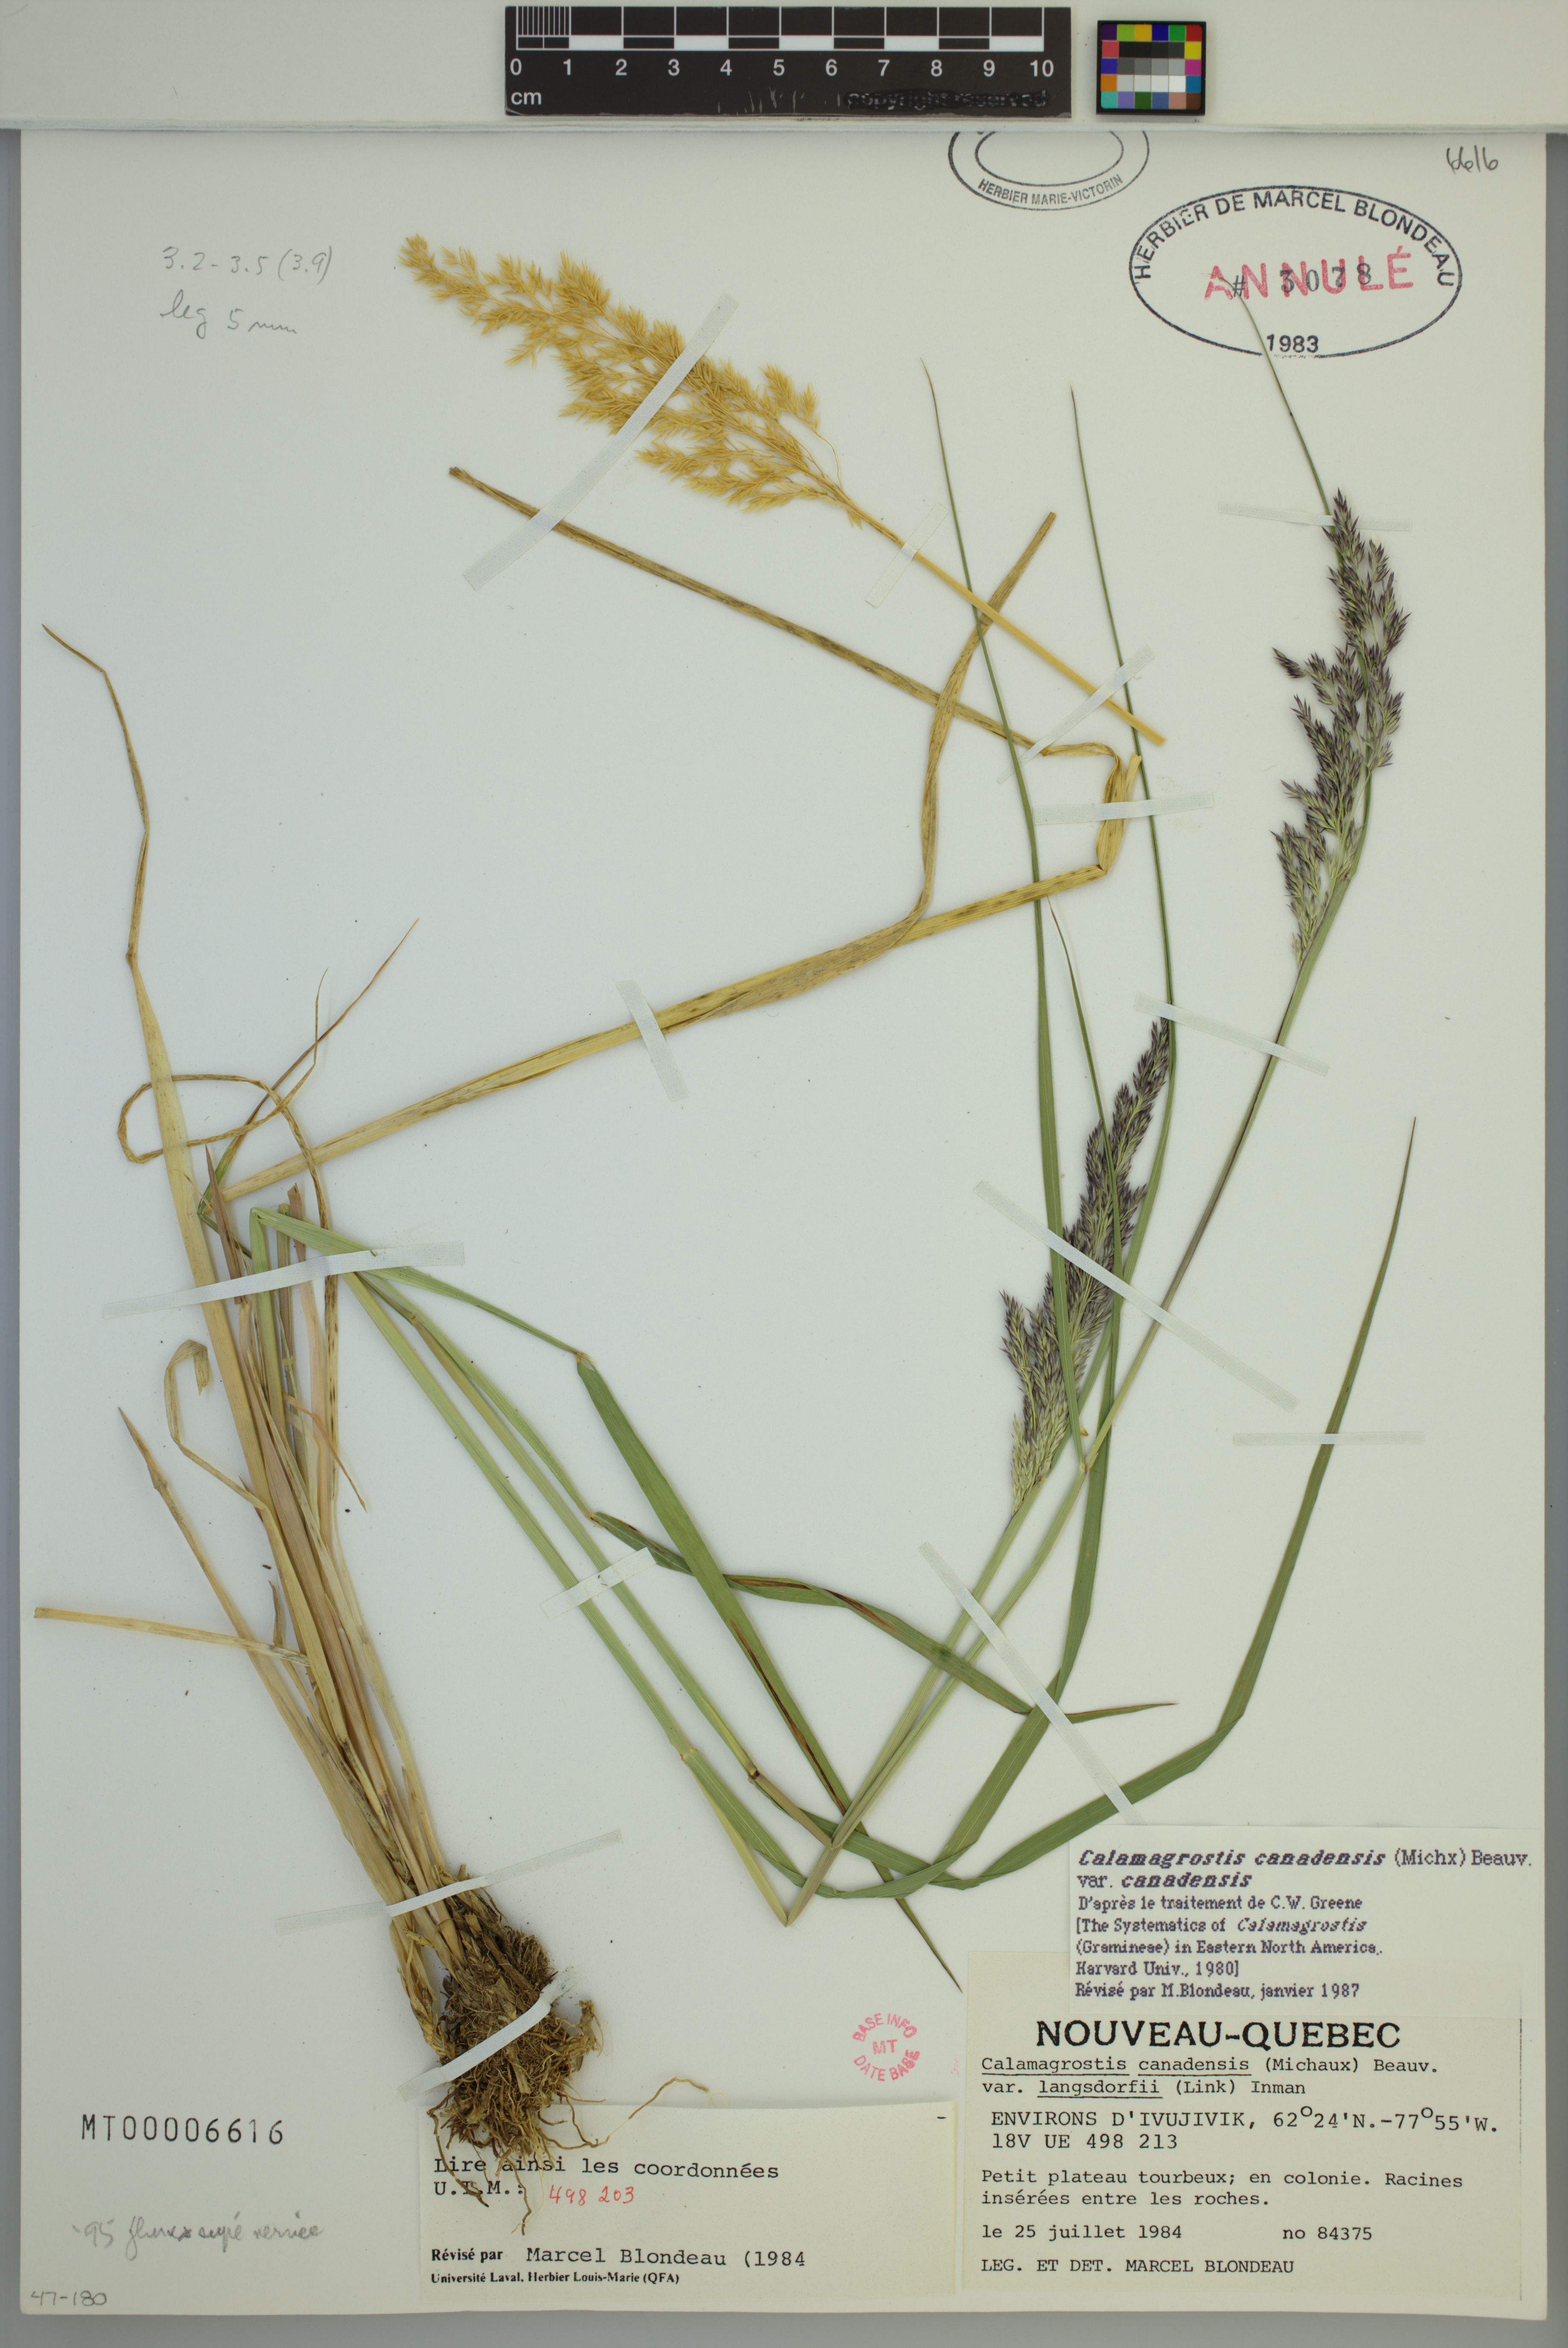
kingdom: Plantae
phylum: Tracheophyta
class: Liliopsida
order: Poales
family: Poaceae
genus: Calamagrostis
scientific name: Calamagrostis canadensis
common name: Canada bluejoint
